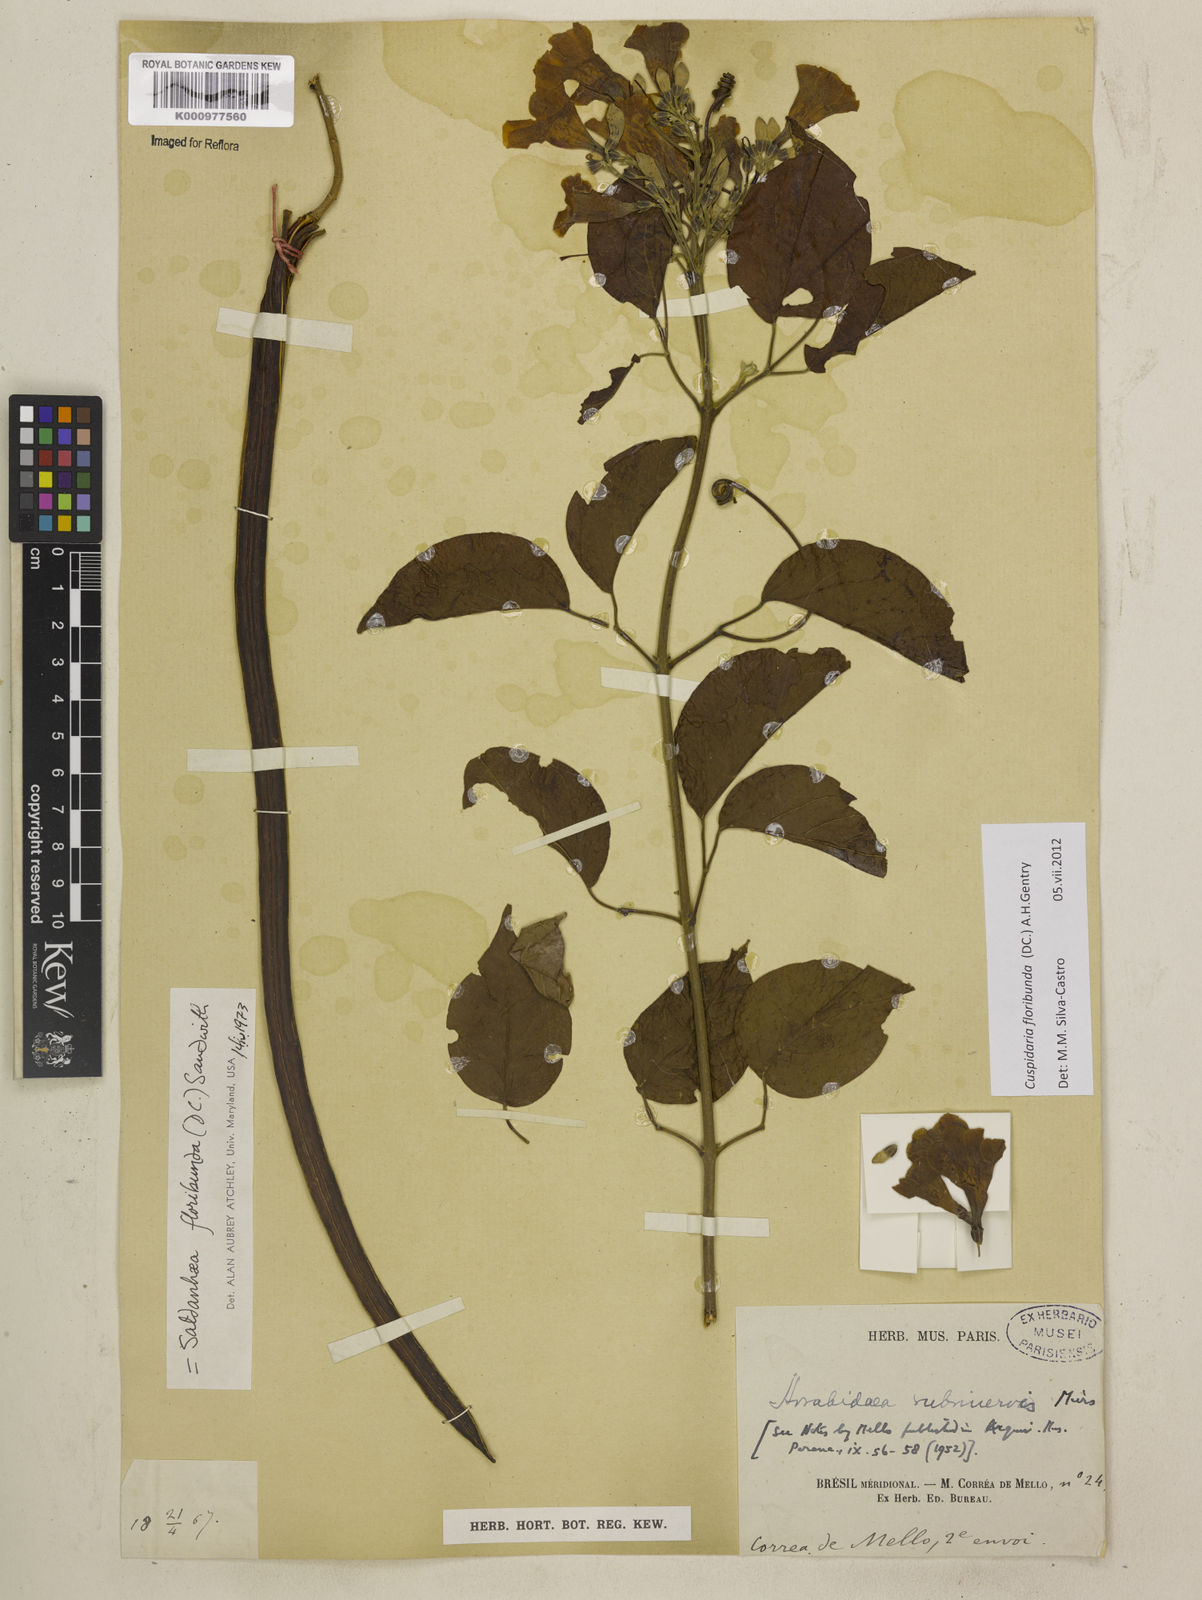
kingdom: Plantae
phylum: Tracheophyta
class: Magnoliopsida
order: Lamiales
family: Bignoniaceae
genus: Cuspidaria
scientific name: Cuspidaria floribunda
